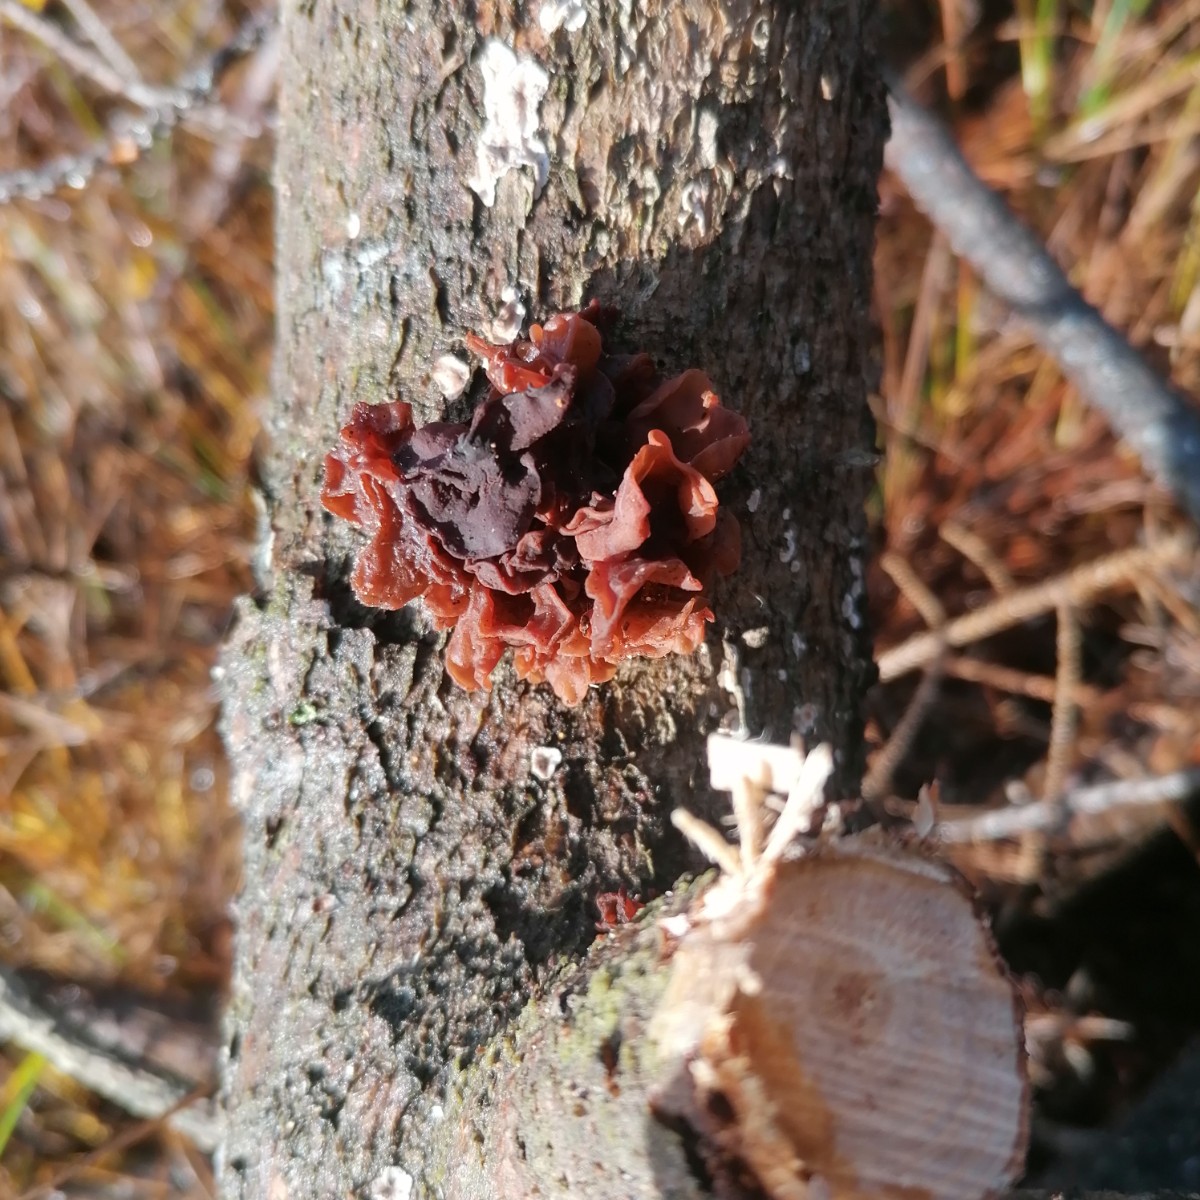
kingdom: Fungi
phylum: Basidiomycota
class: Tremellomycetes
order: Tremellales
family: Tremellaceae
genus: Phaeotremella
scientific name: Phaeotremella foliacea
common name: brun bævresvamp
